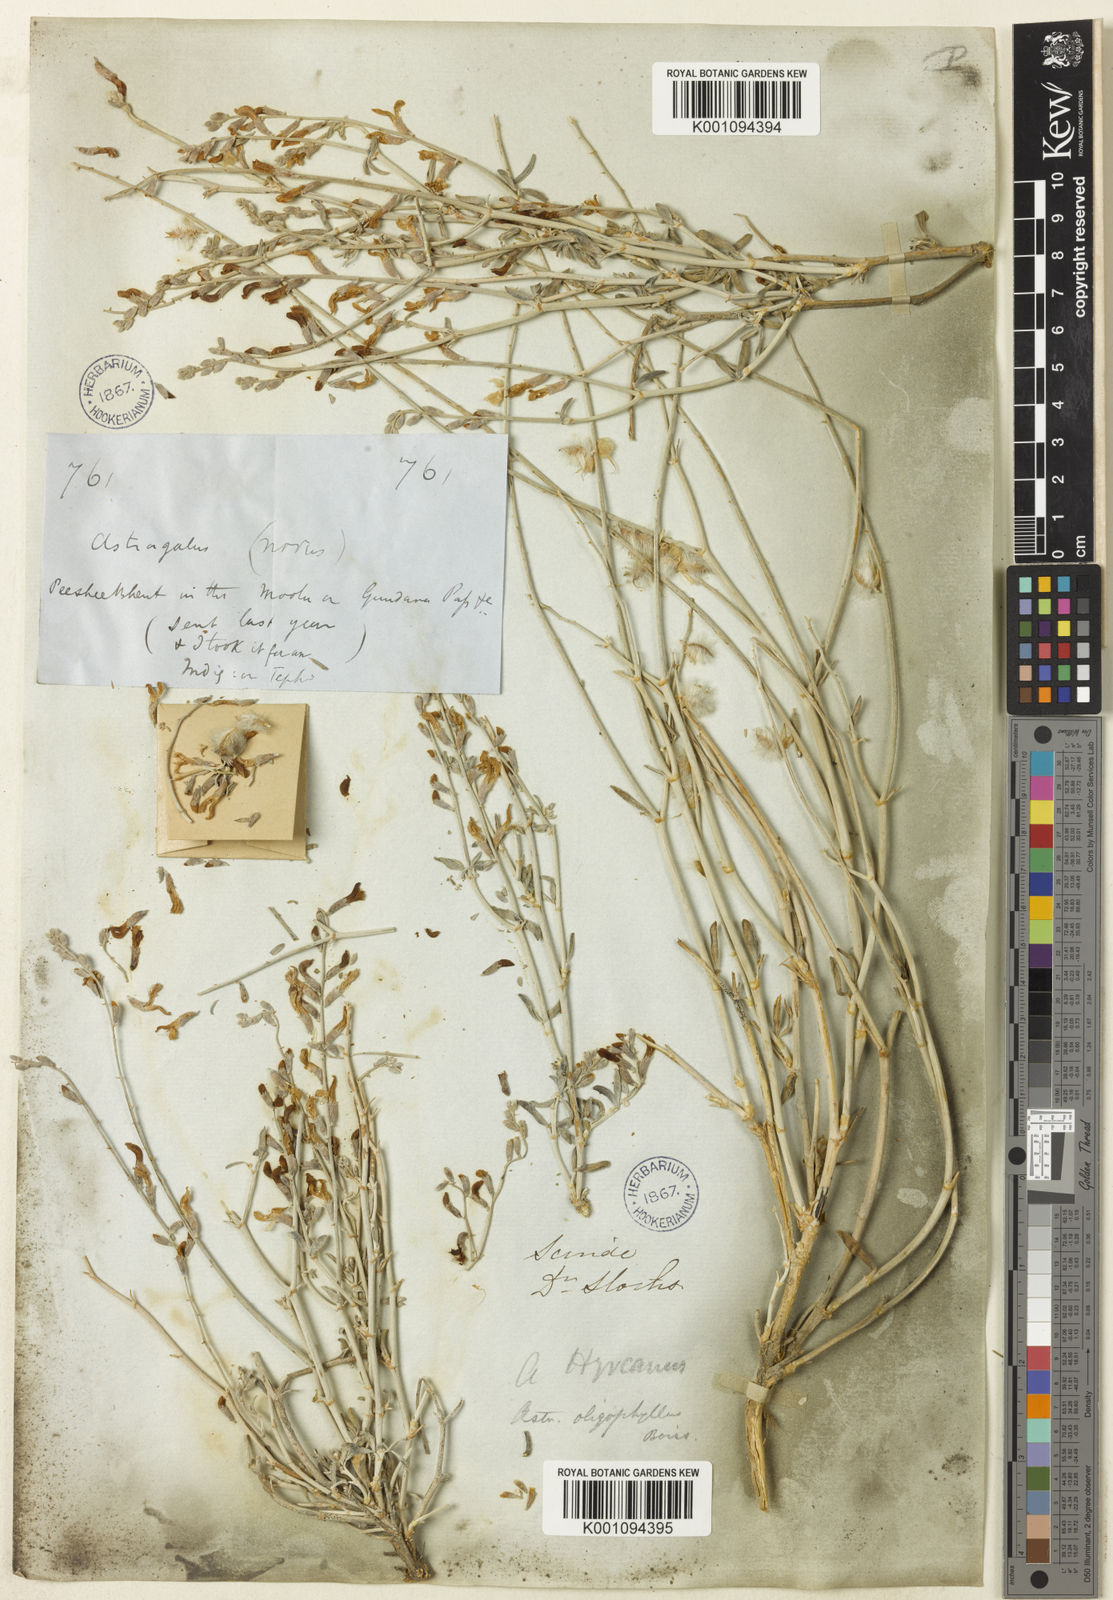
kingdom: Plantae
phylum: Tracheophyta
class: Magnoliopsida
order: Fabales
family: Fabaceae
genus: Astragalus
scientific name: Astragalus
